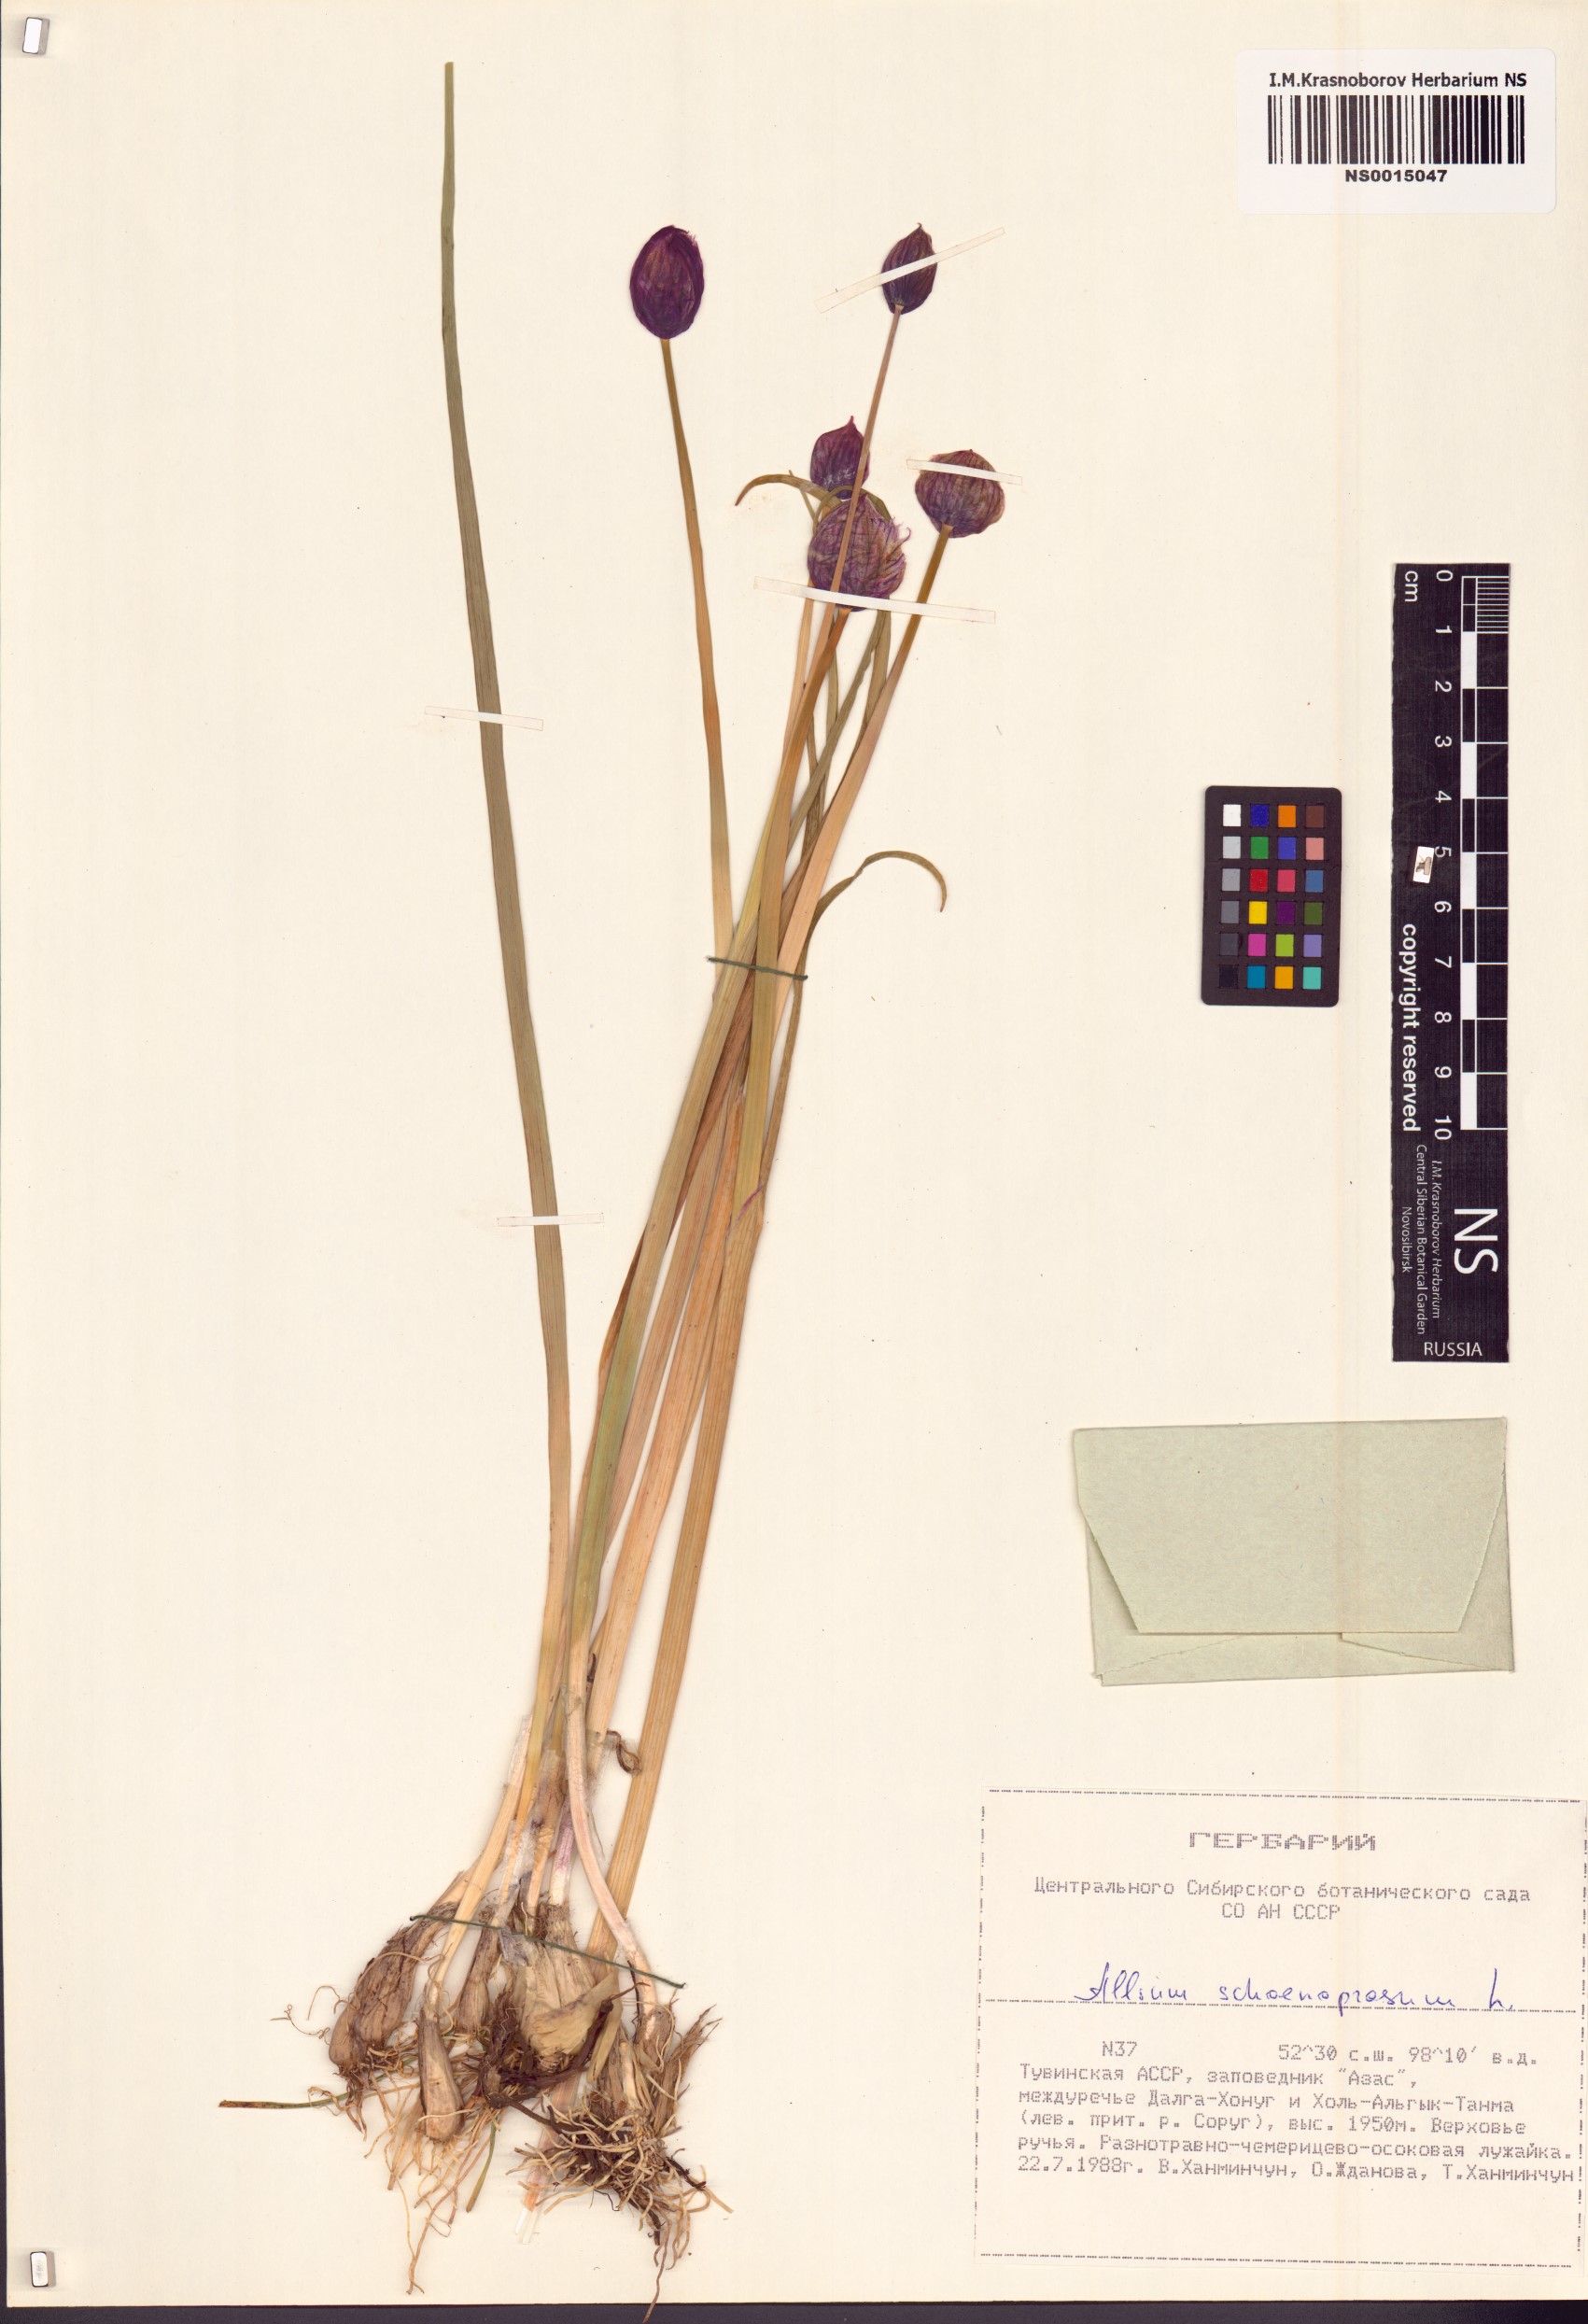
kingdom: Plantae
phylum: Tracheophyta
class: Liliopsida
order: Asparagales
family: Amaryllidaceae
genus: Allium
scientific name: Allium schoenoprasum
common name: Chives
